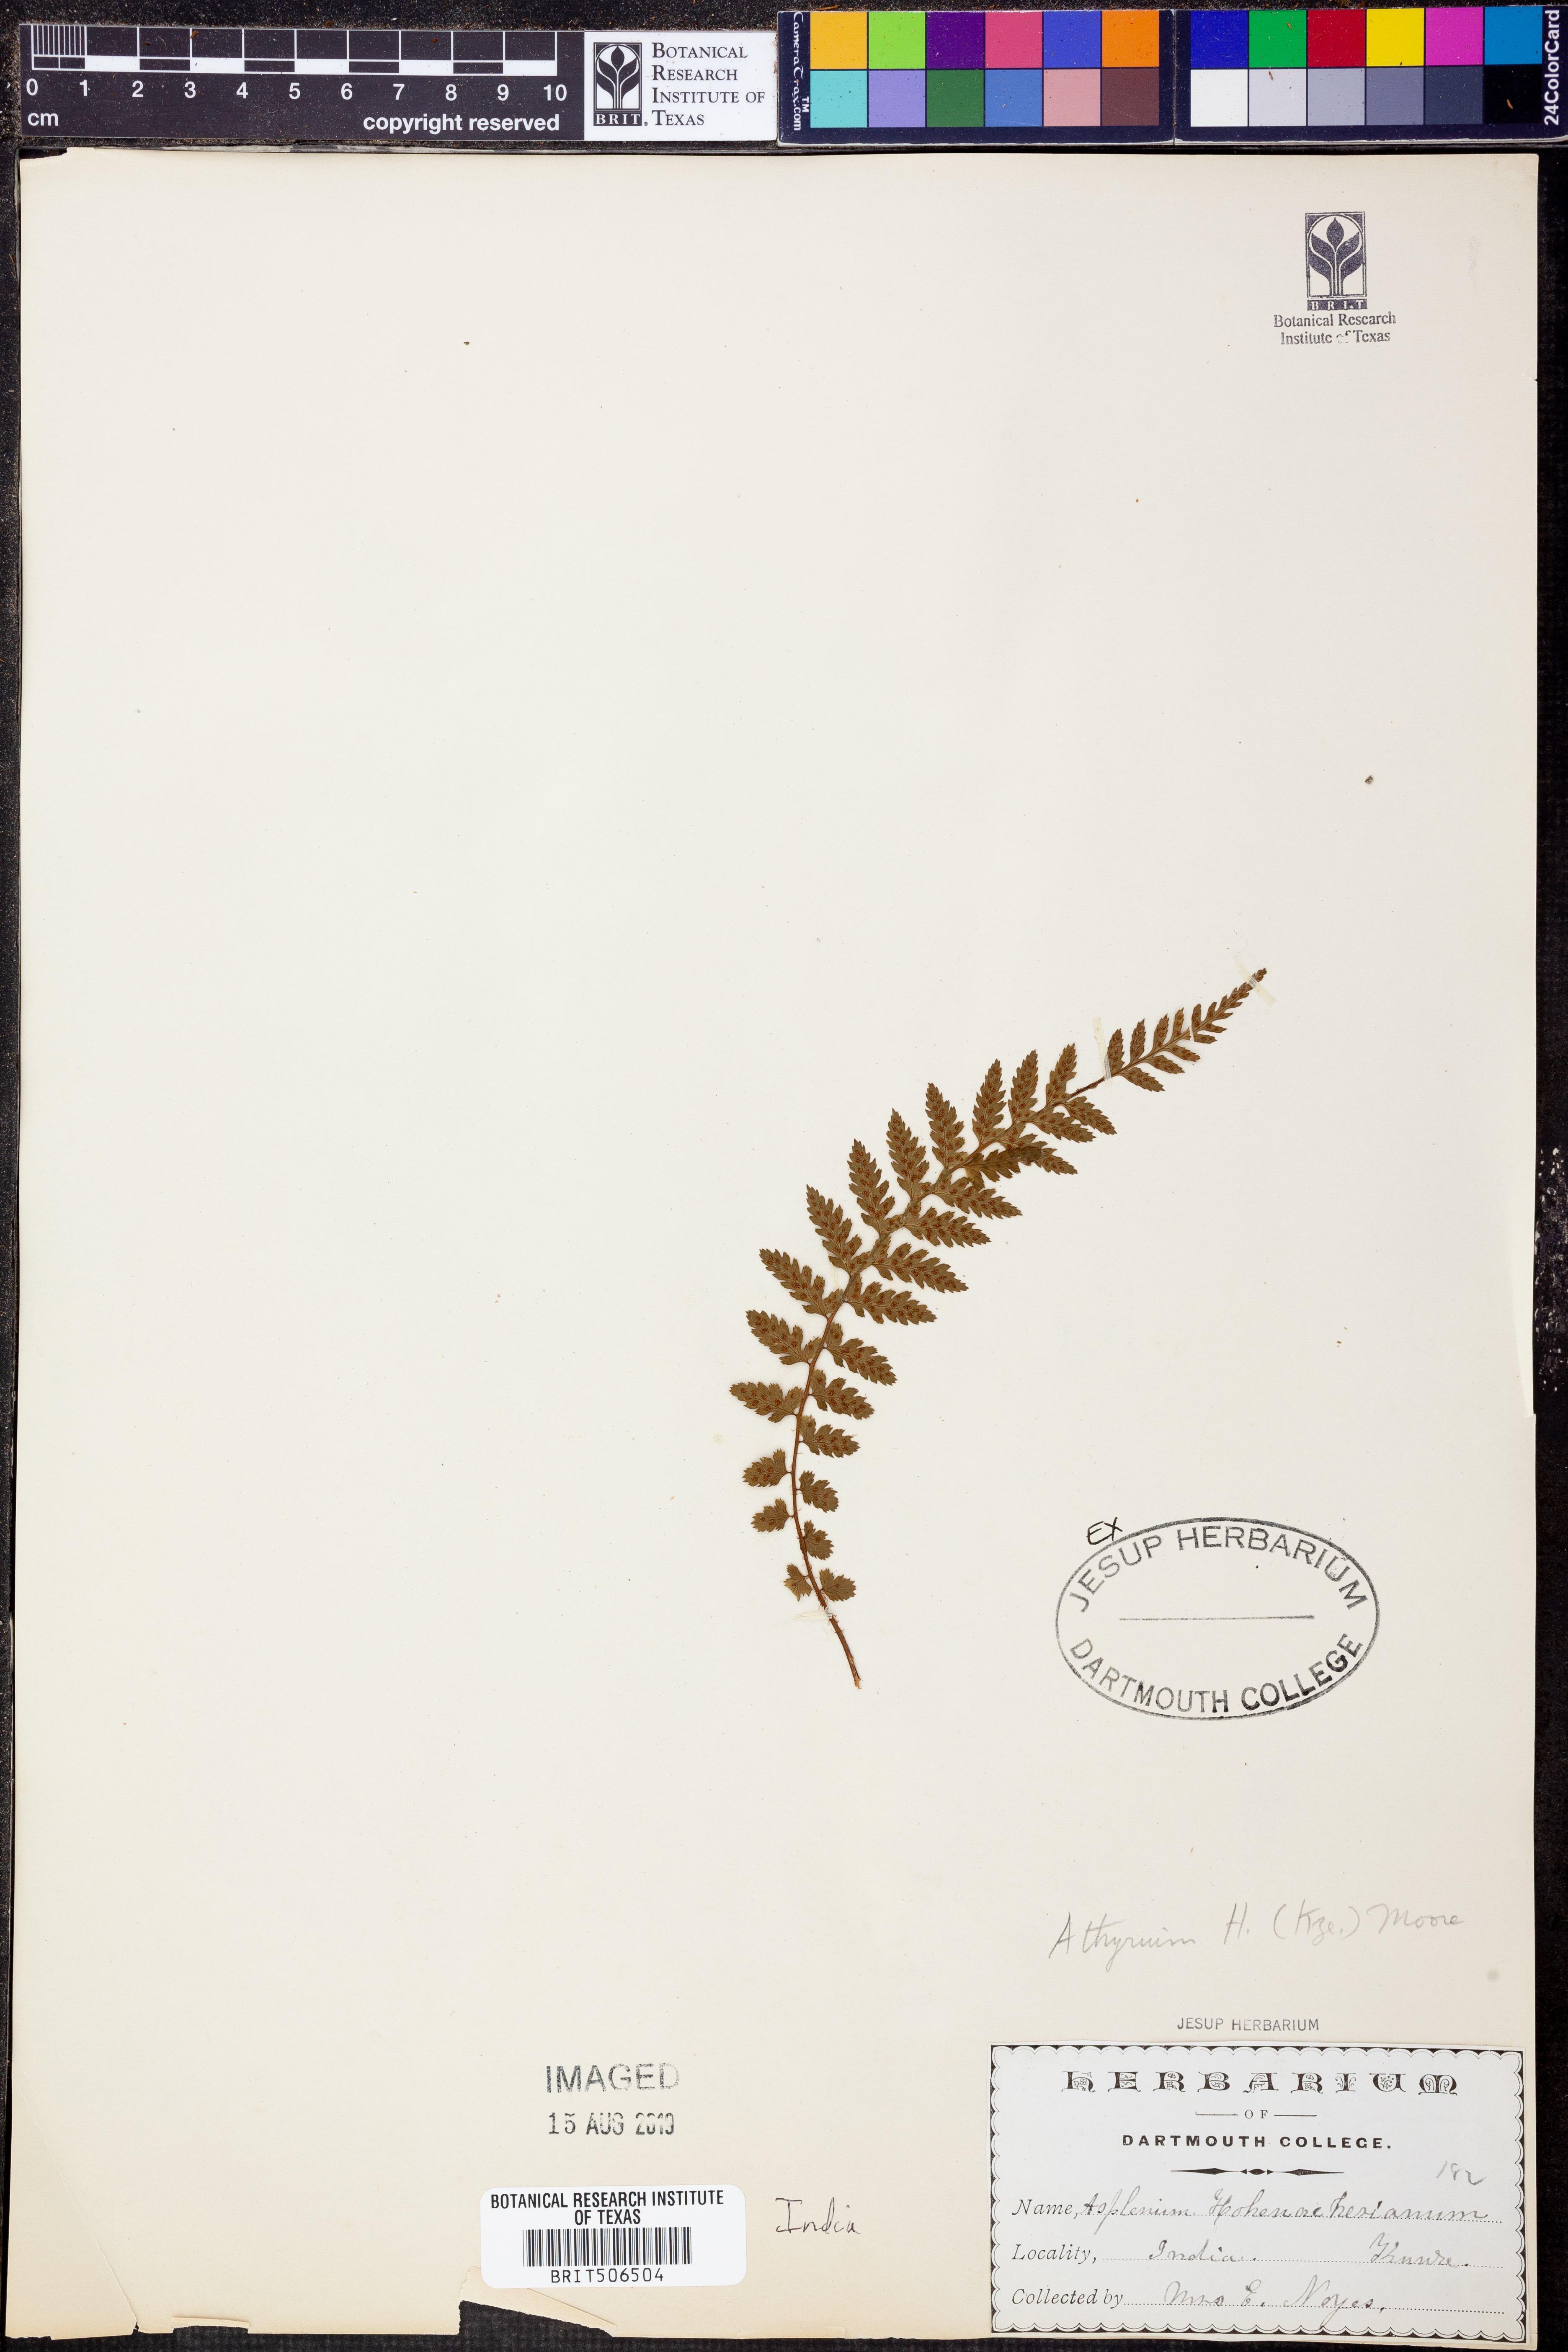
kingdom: Plantae
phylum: Tracheophyta
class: Polypodiopsida
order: Polypodiales
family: Athyriaceae
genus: Athyrium
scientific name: Athyrium hohenackerianum
